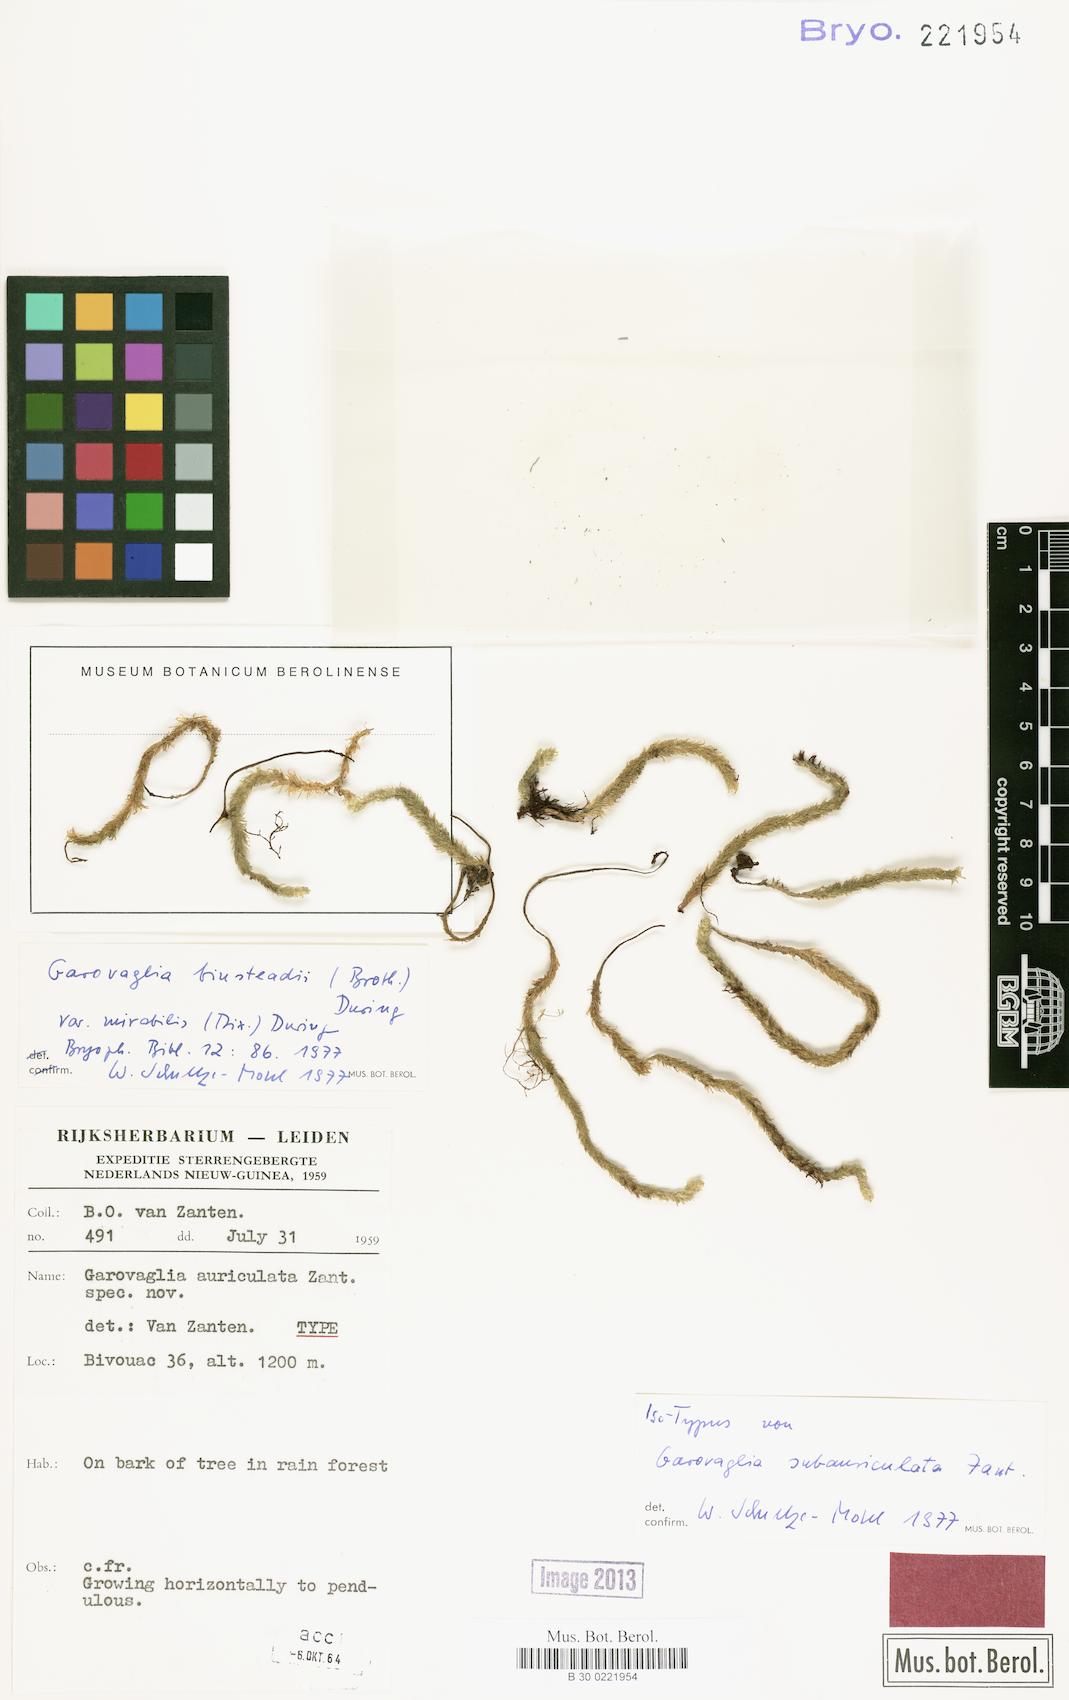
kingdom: Plantae
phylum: Bryophyta
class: Bryopsida
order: Ptychomniales
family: Ptychomniaceae
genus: Garovaglia
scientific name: Garovaglia binsteadii
